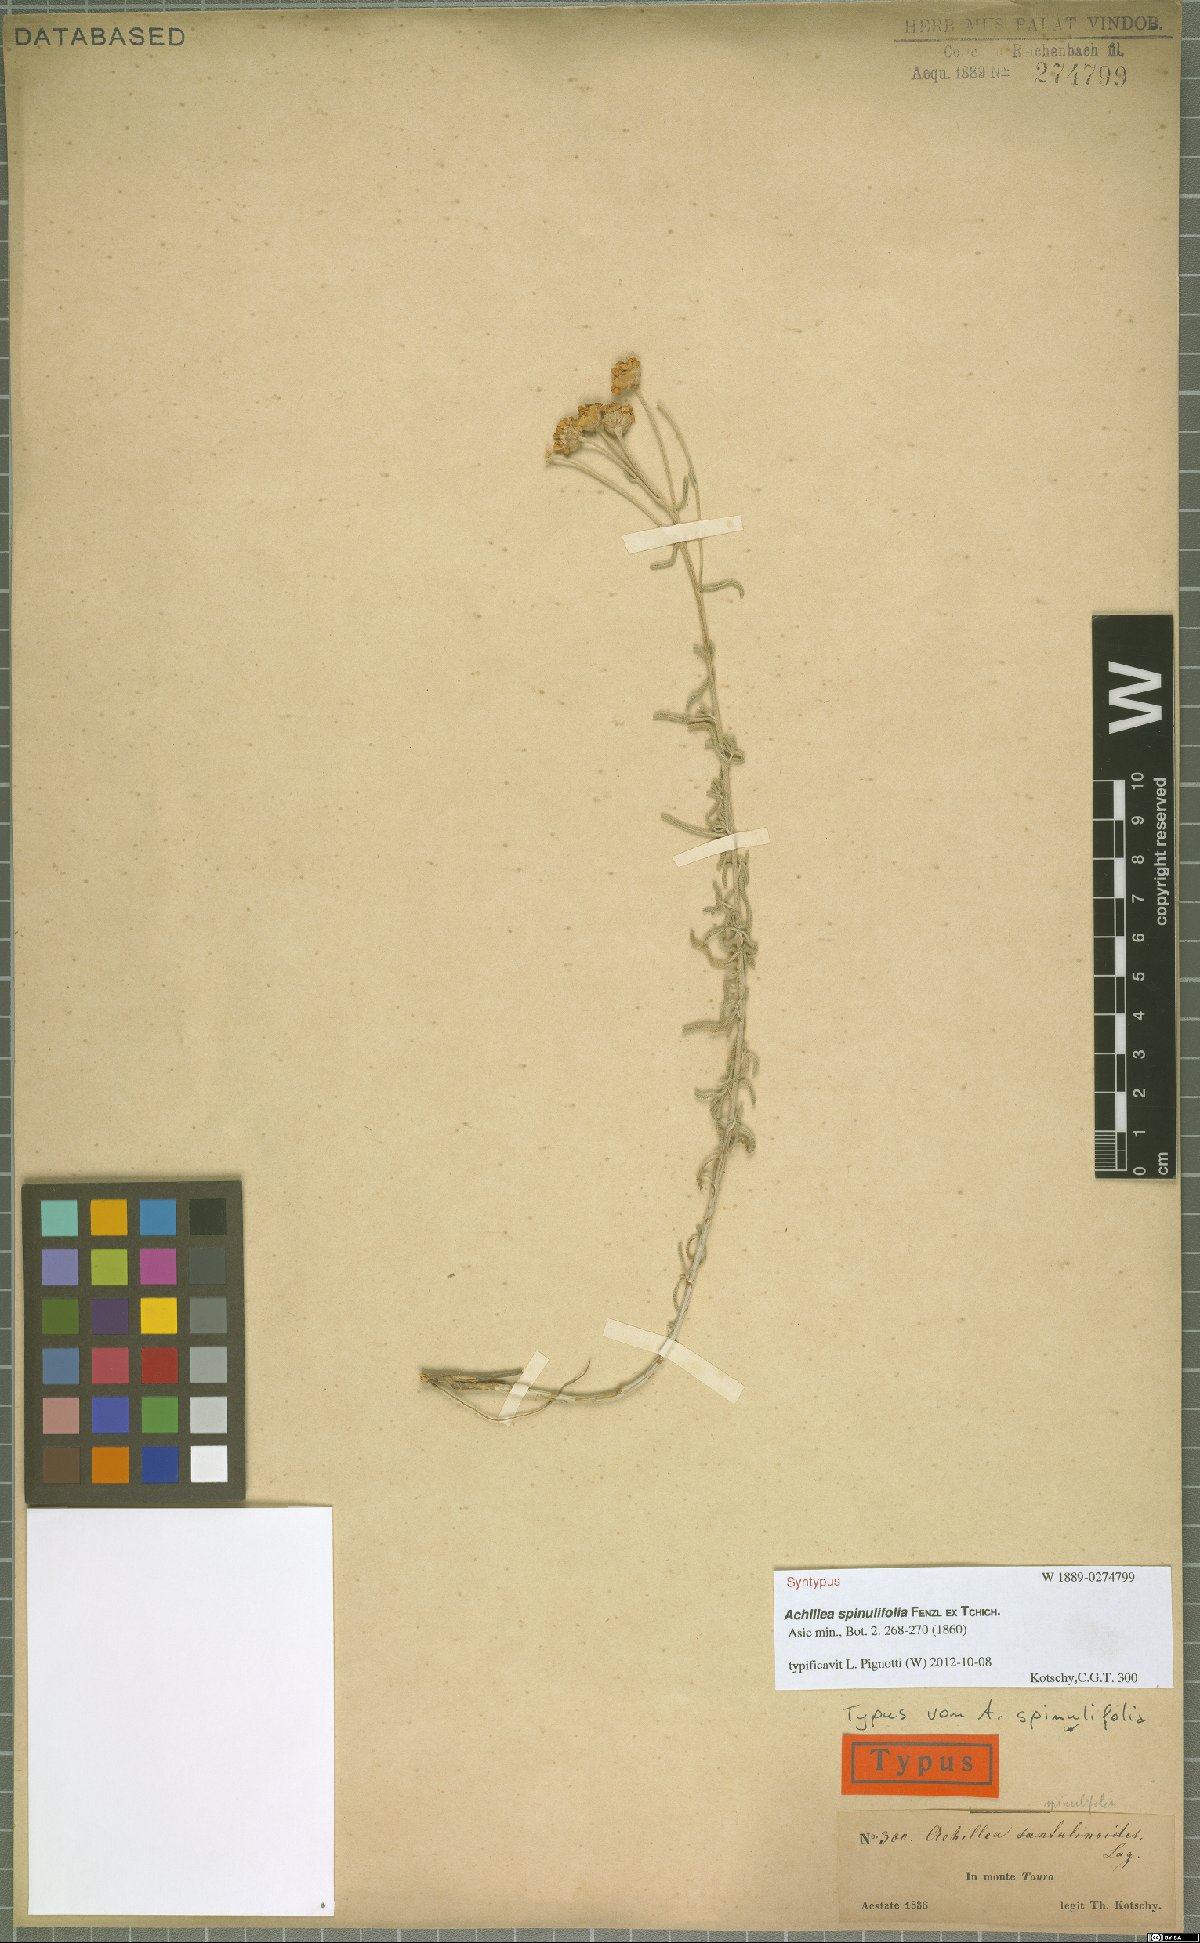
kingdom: Plantae
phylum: Tracheophyta
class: Magnoliopsida
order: Asterales
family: Asteraceae
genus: Achillea
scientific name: Achillea spinulifolia
